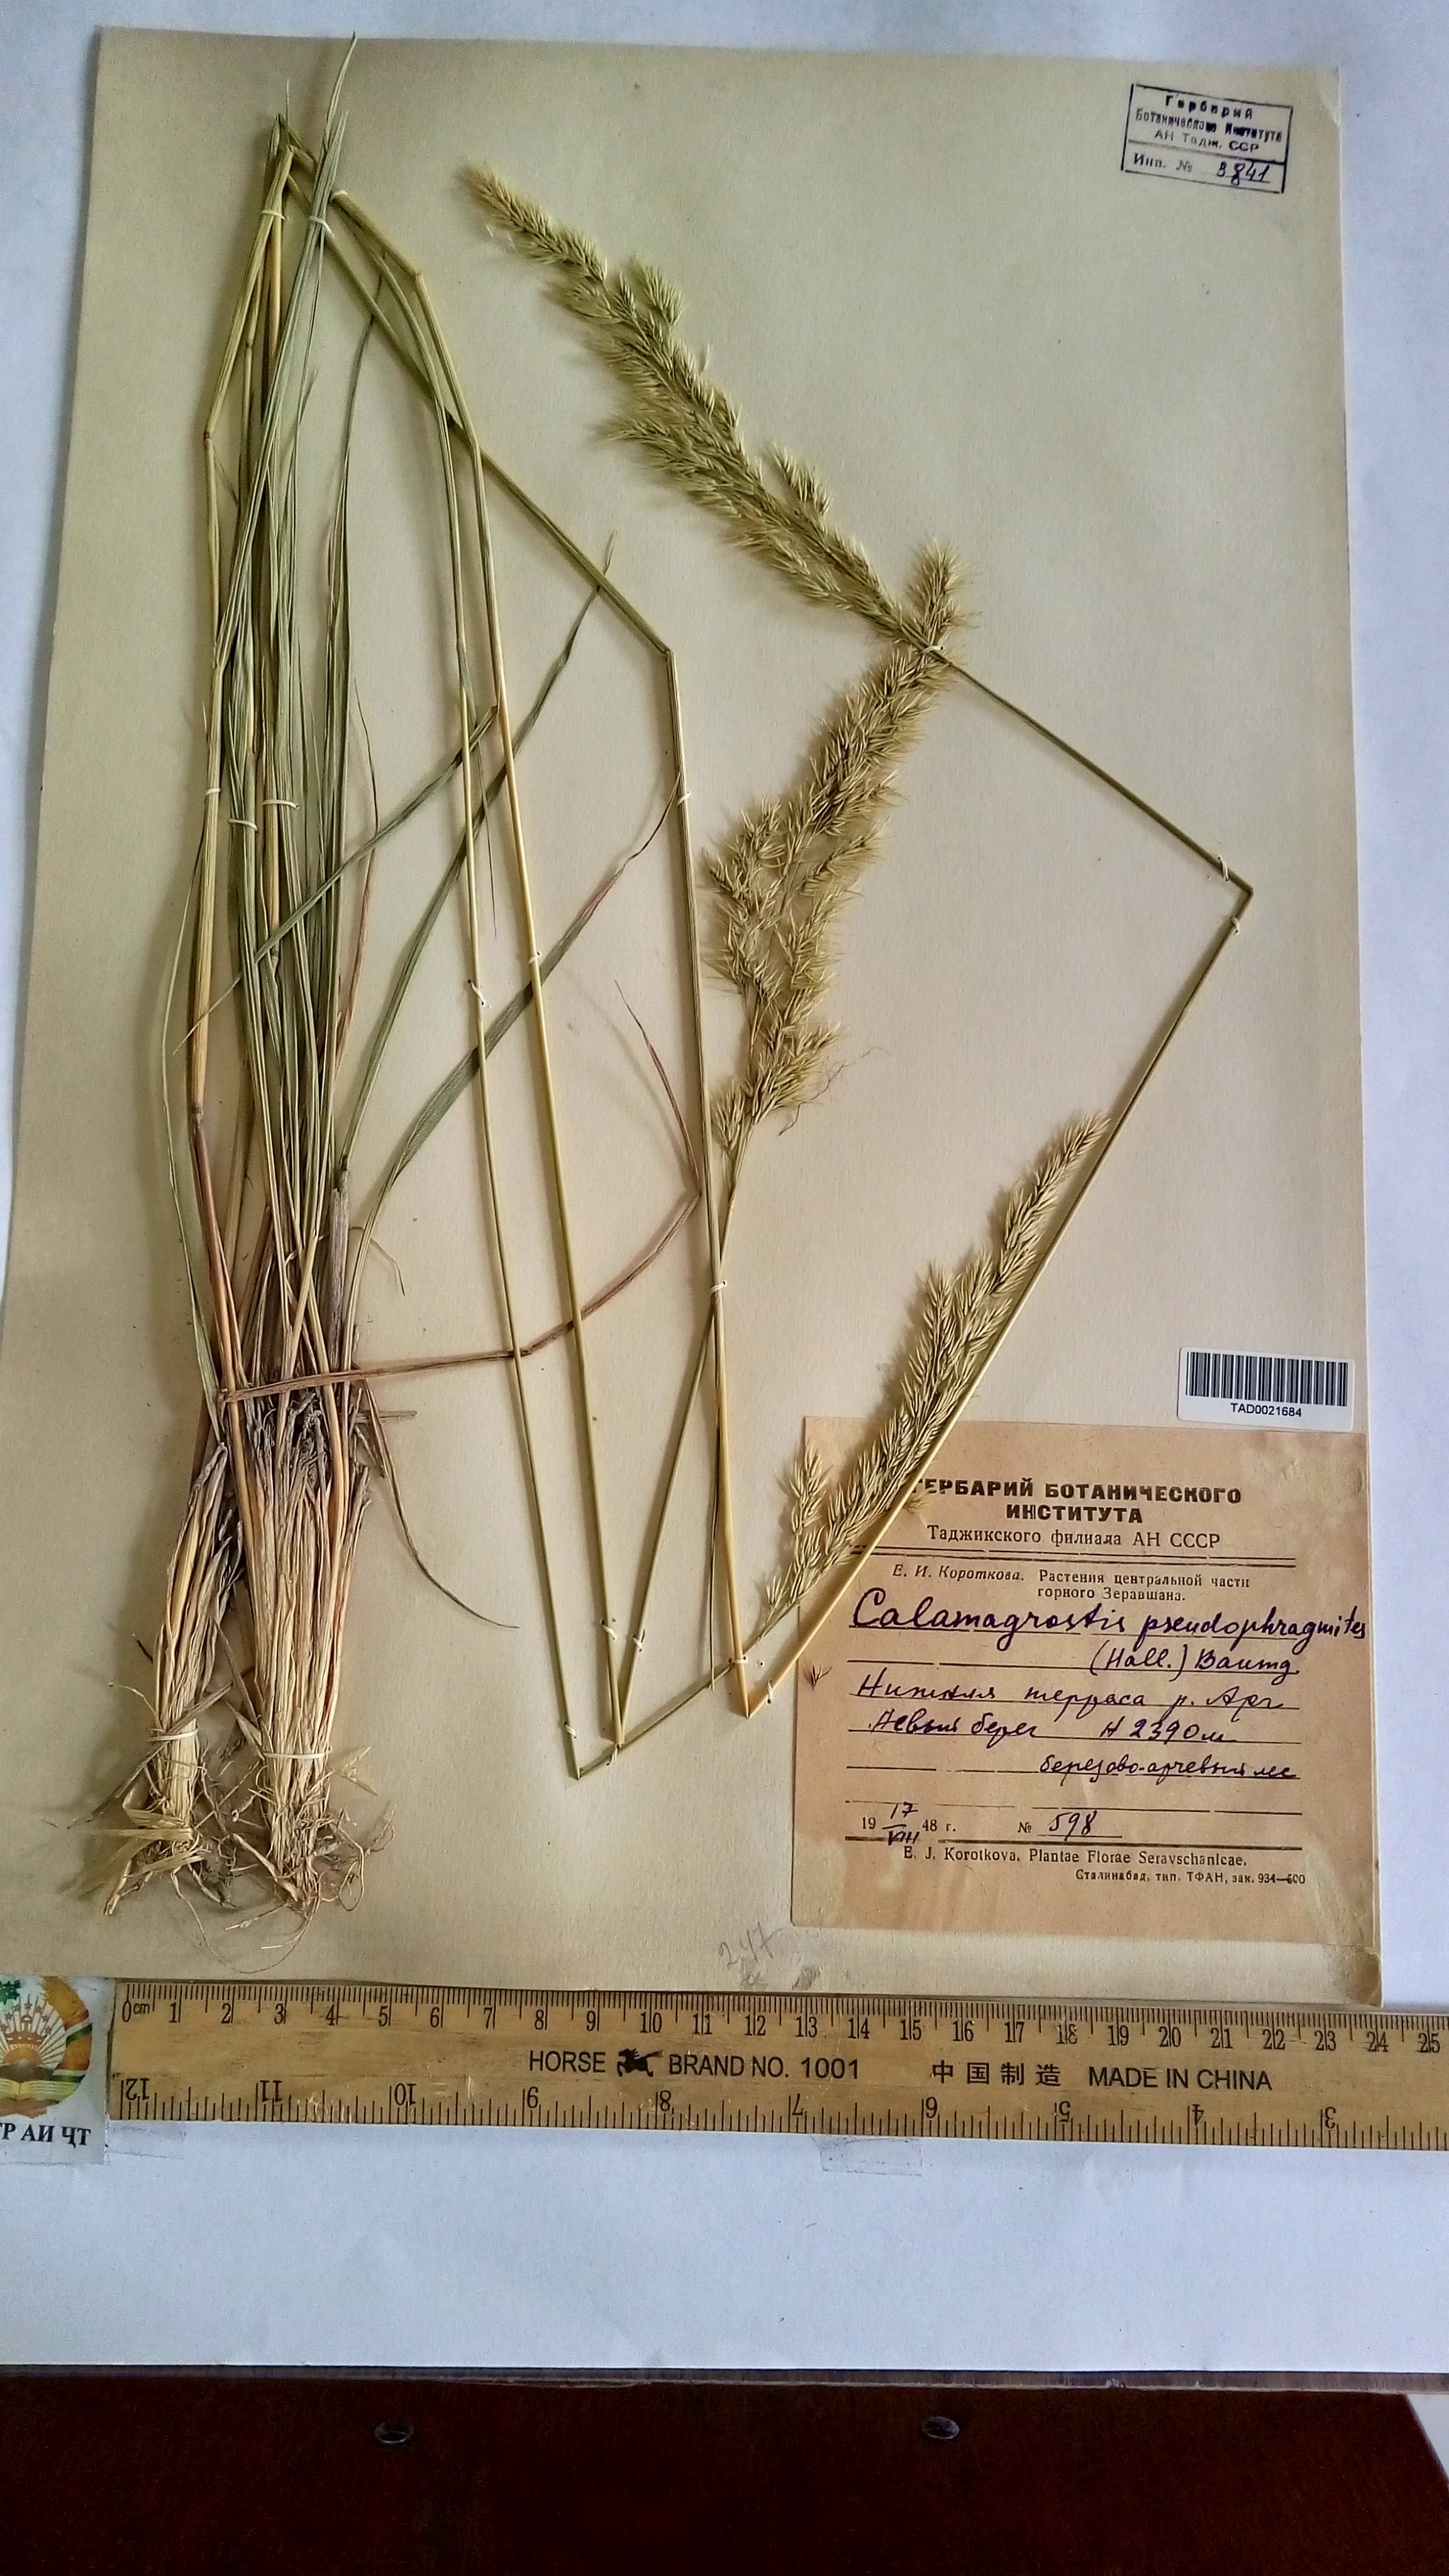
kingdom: Plantae
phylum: Tracheophyta
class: Liliopsida
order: Poales
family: Poaceae
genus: Calamagrostis
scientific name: Calamagrostis pseudophragmites
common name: Coastal small-reed
